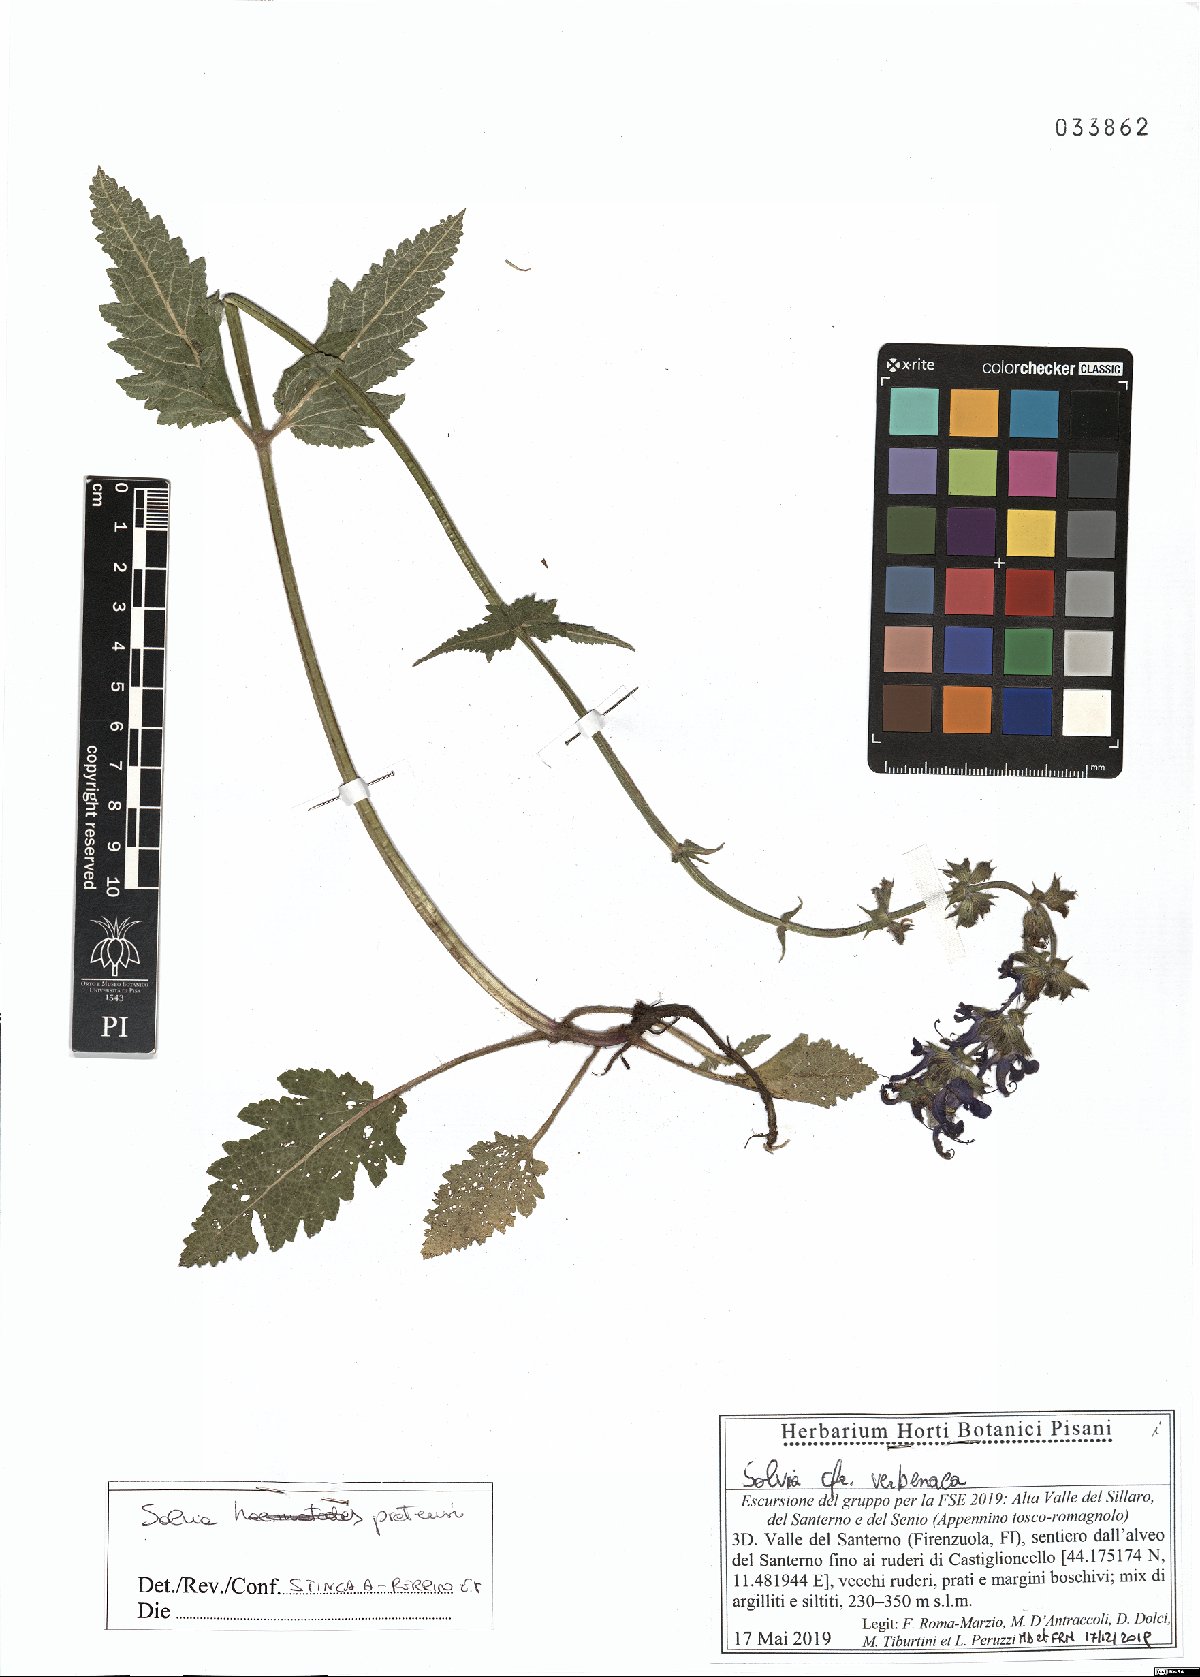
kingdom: Plantae
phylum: Tracheophyta
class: Magnoliopsida
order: Lamiales
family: Lamiaceae
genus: Salvia
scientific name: Salvia pratensis
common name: Meadow sage
